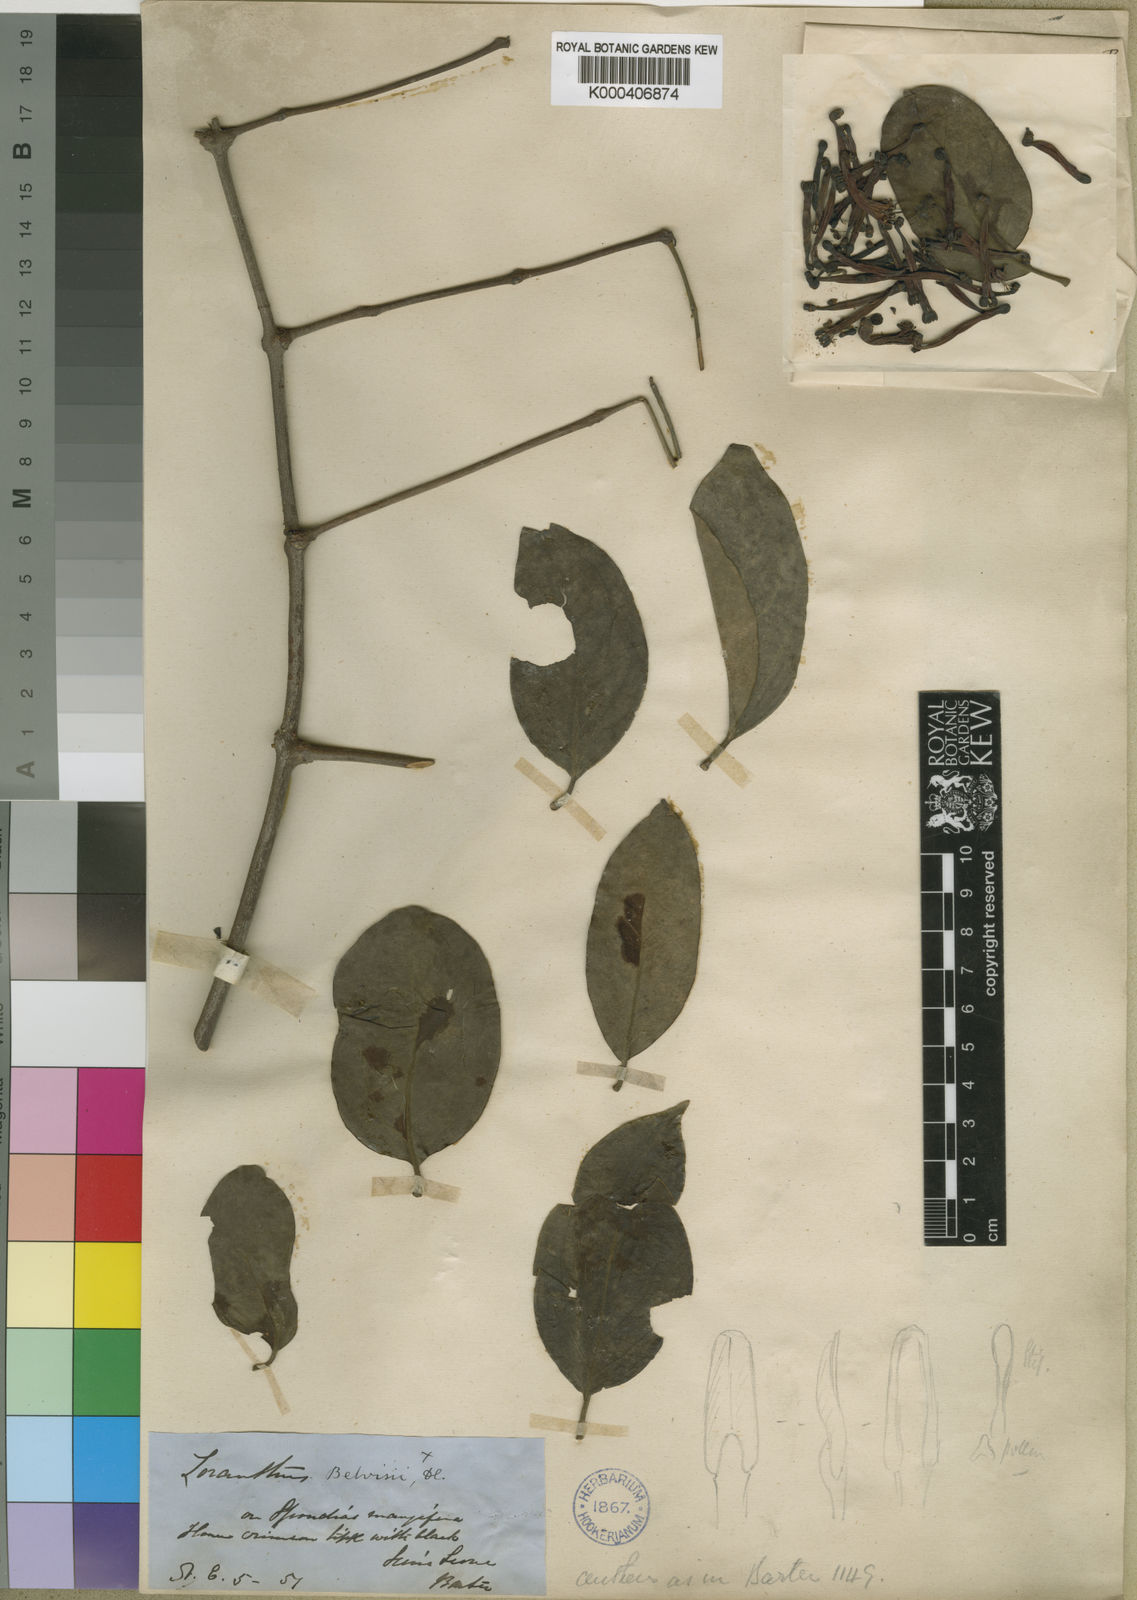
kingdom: Plantae
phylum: Tracheophyta
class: Magnoliopsida
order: Santalales
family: Loranthaceae
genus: Tapinanthus
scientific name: Tapinanthus bangwensis
